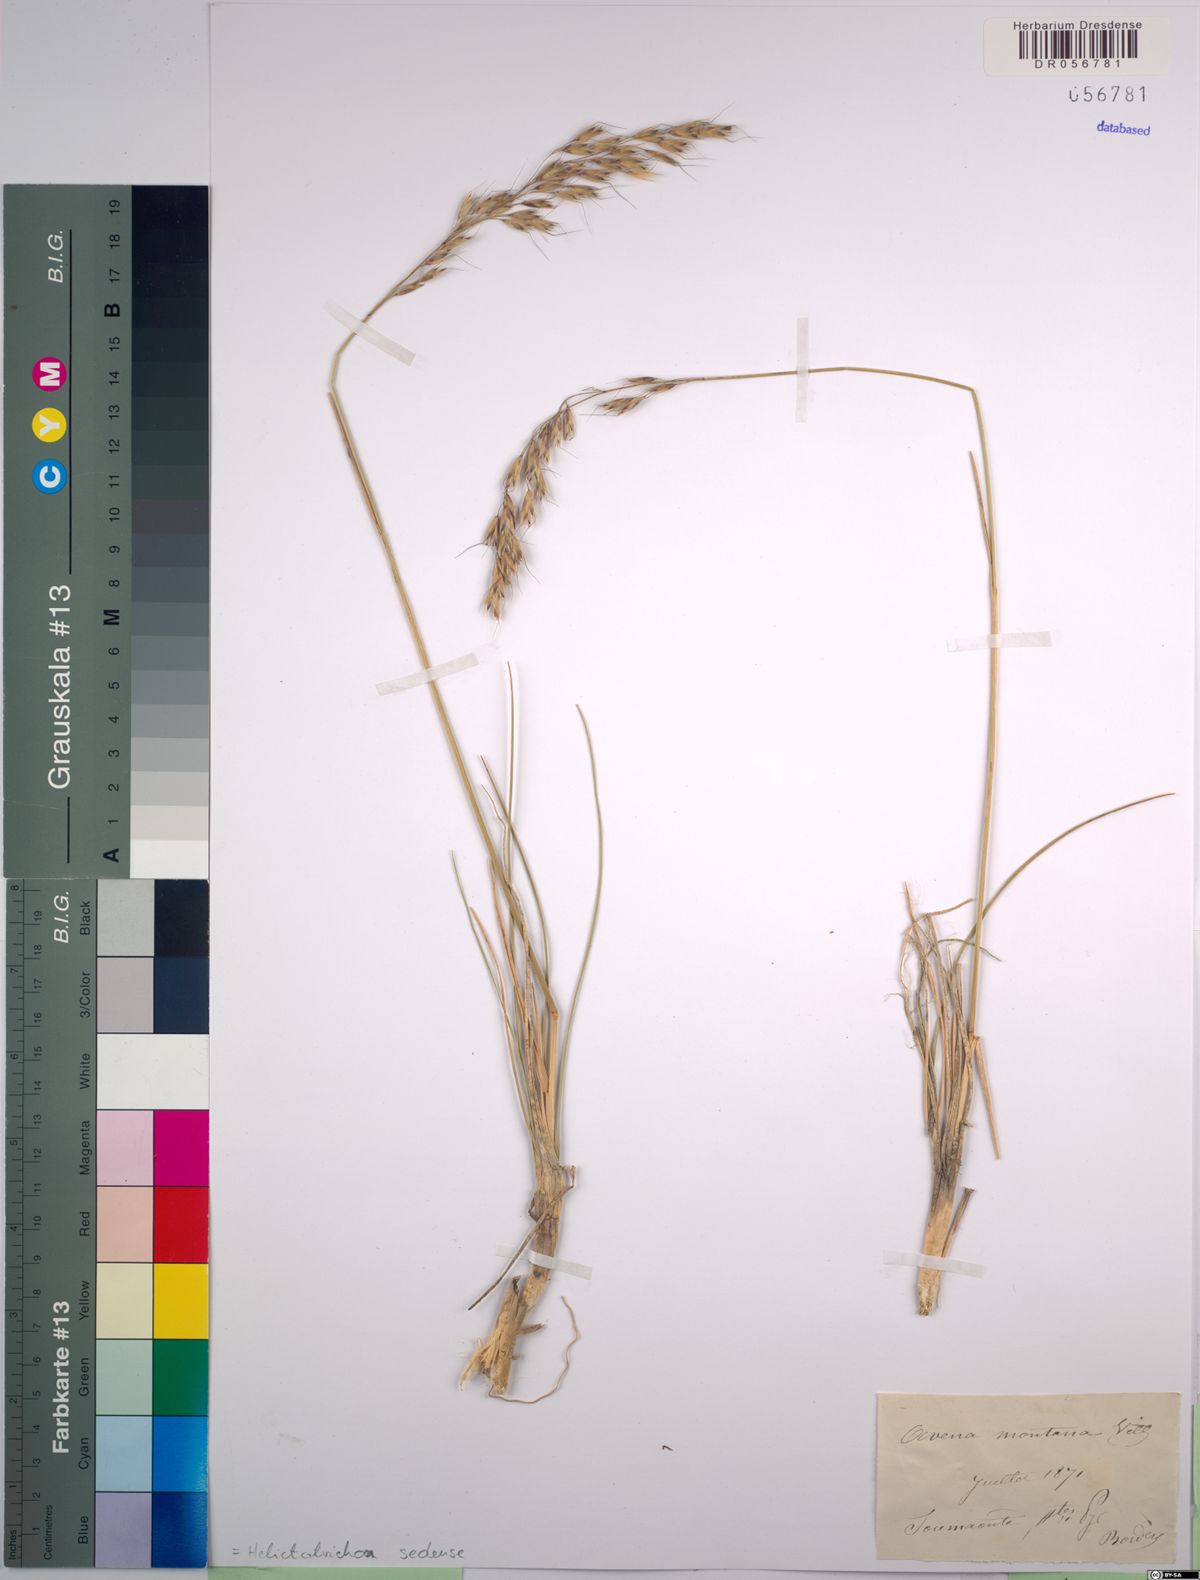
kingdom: Plantae
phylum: Tracheophyta
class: Liliopsida
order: Poales
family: Poaceae
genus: Helictotrichon
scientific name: Helictotrichon sedenense
